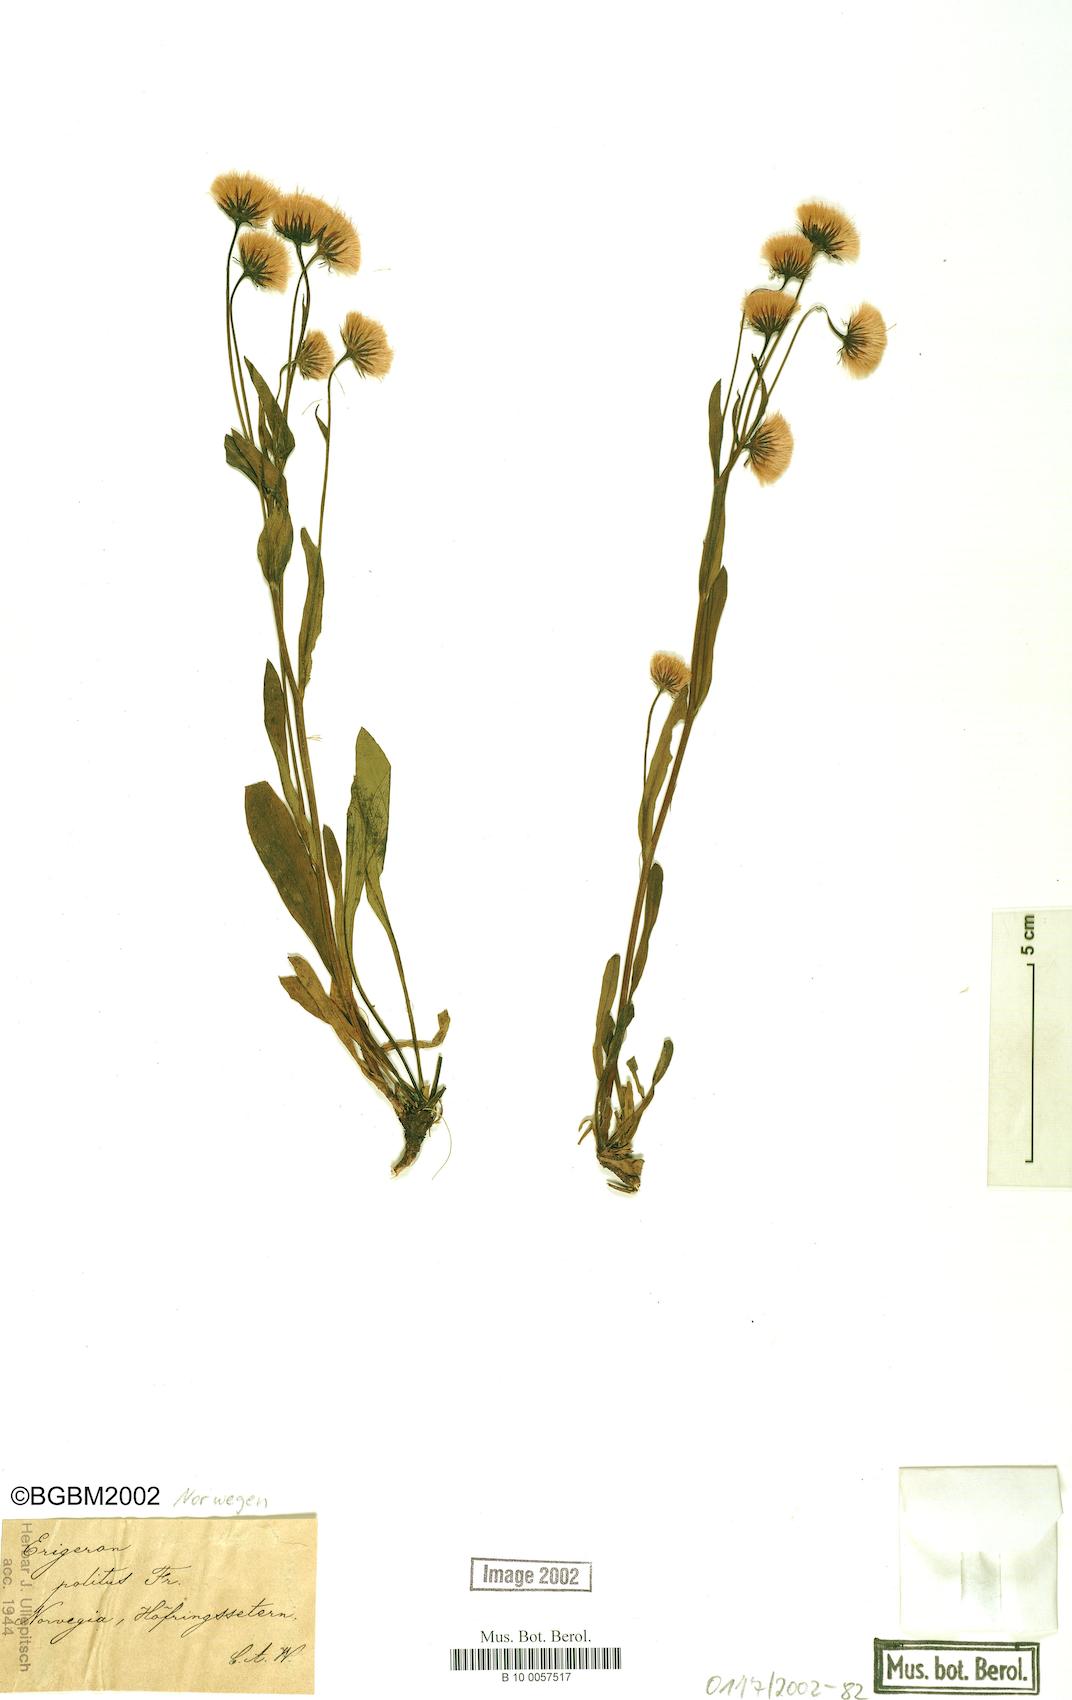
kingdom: Plantae
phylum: Tracheophyta
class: Magnoliopsida
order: Asterales
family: Asteraceae
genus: Erigeron
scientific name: Erigeron politus
